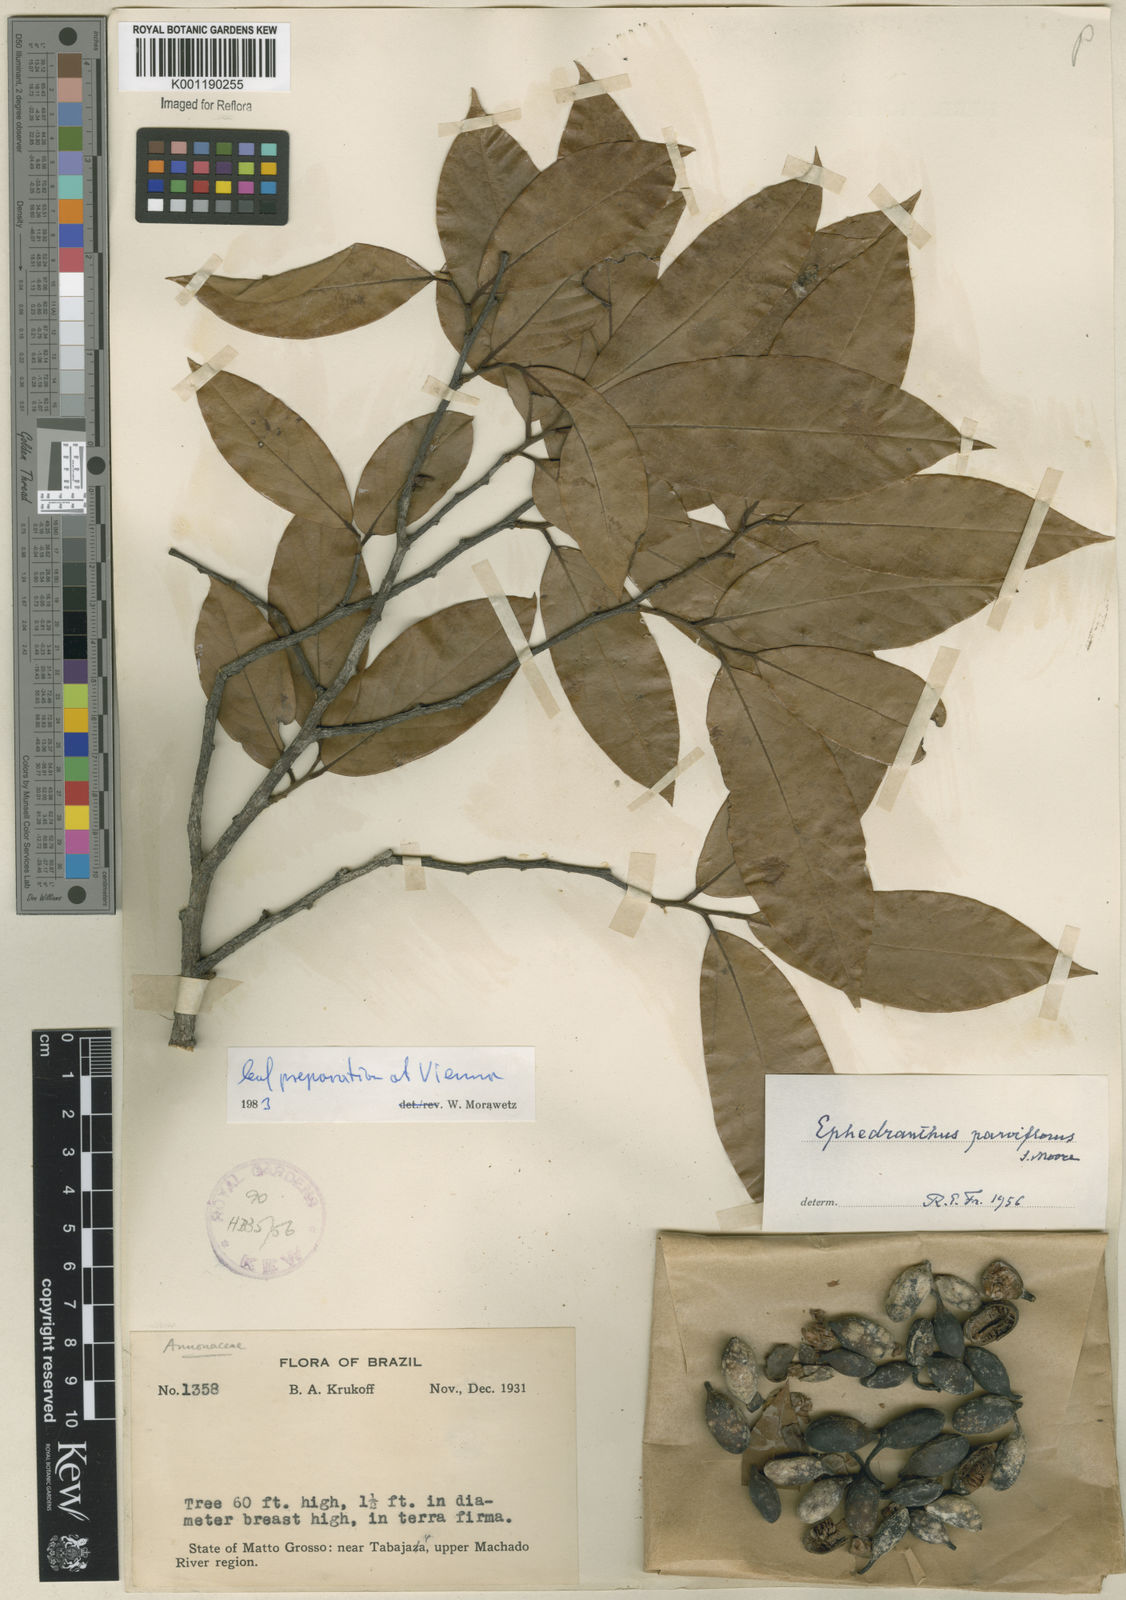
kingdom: Plantae
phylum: Tracheophyta
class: Magnoliopsida
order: Magnoliales
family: Annonaceae
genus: Ephedranthus
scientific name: Ephedranthus parviflorus
